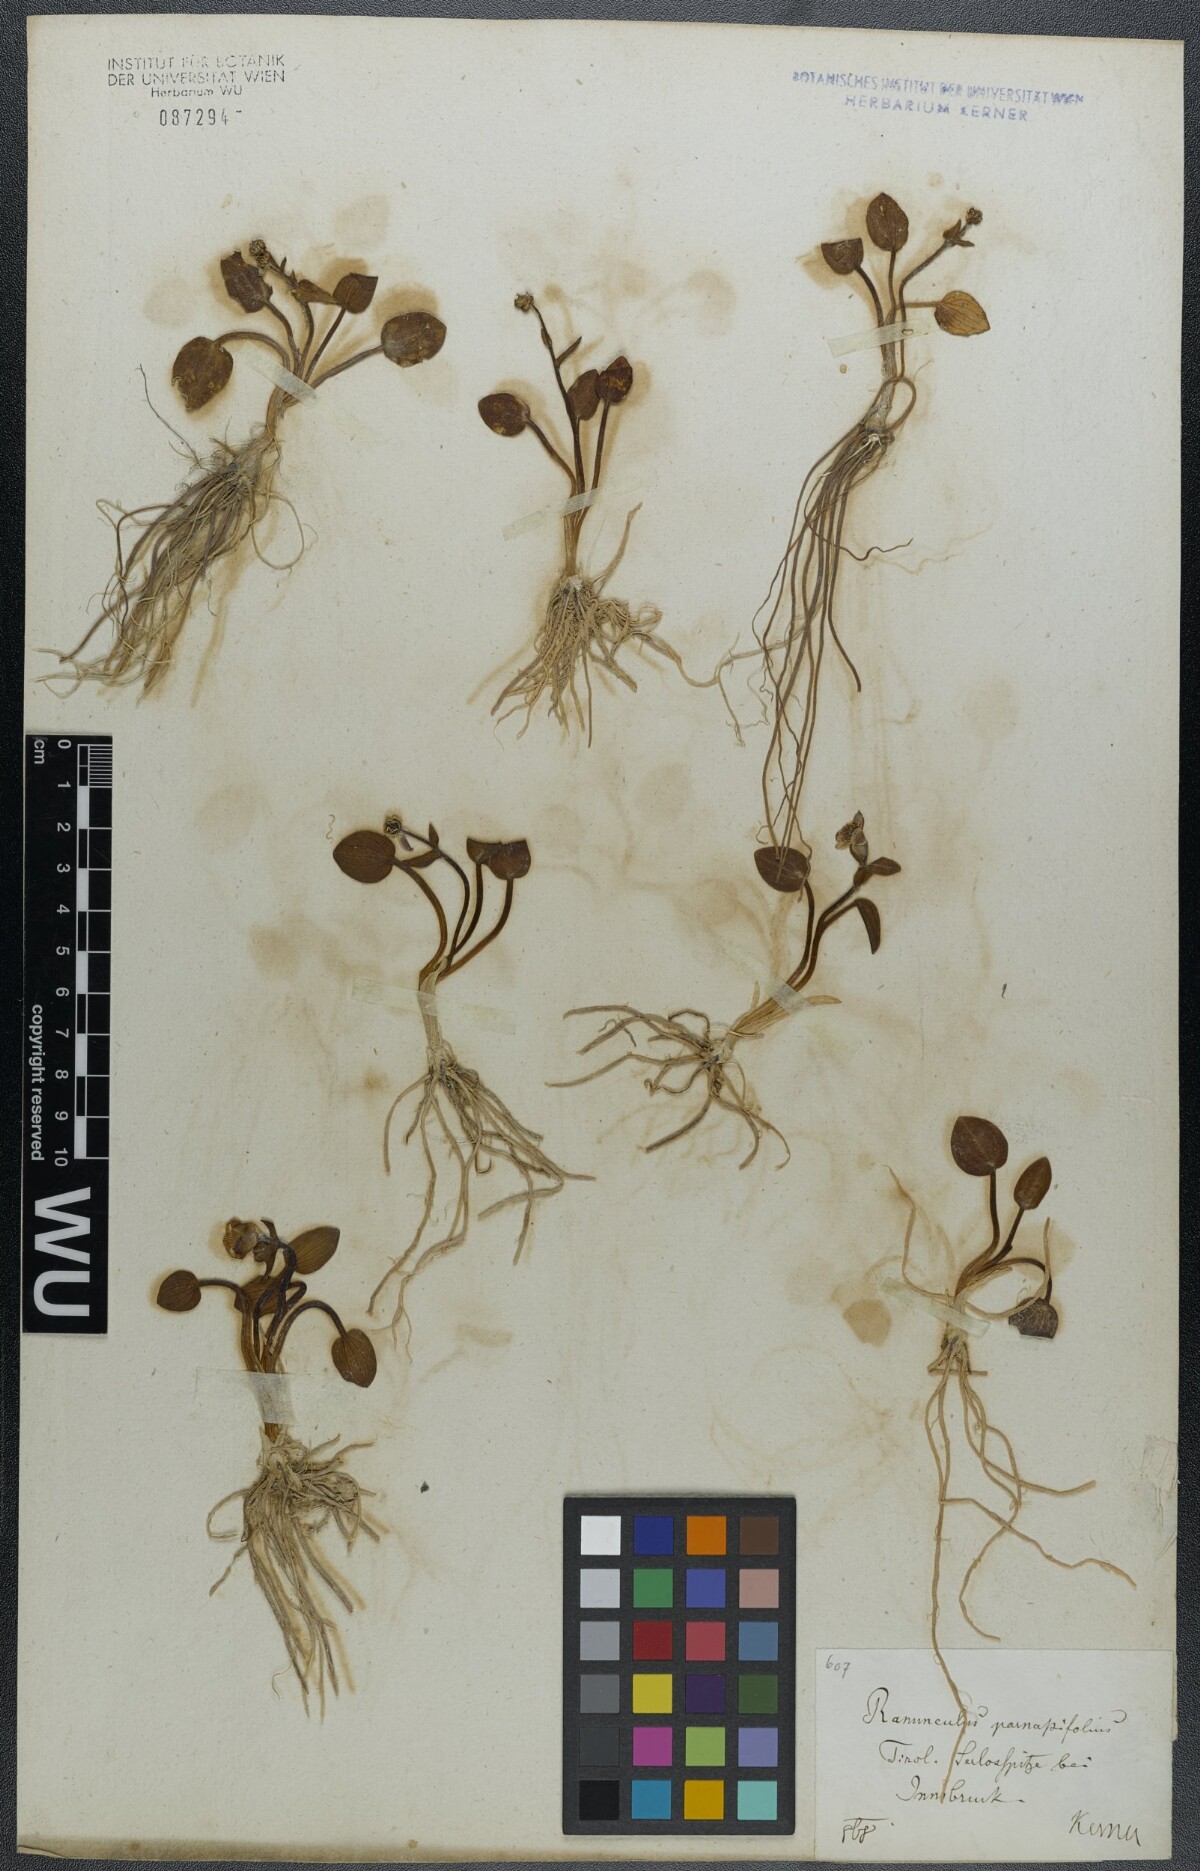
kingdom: Plantae
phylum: Tracheophyta
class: Magnoliopsida
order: Ranunculales
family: Ranunculaceae
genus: Ranunculus
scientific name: Ranunculus parnassiifolius
